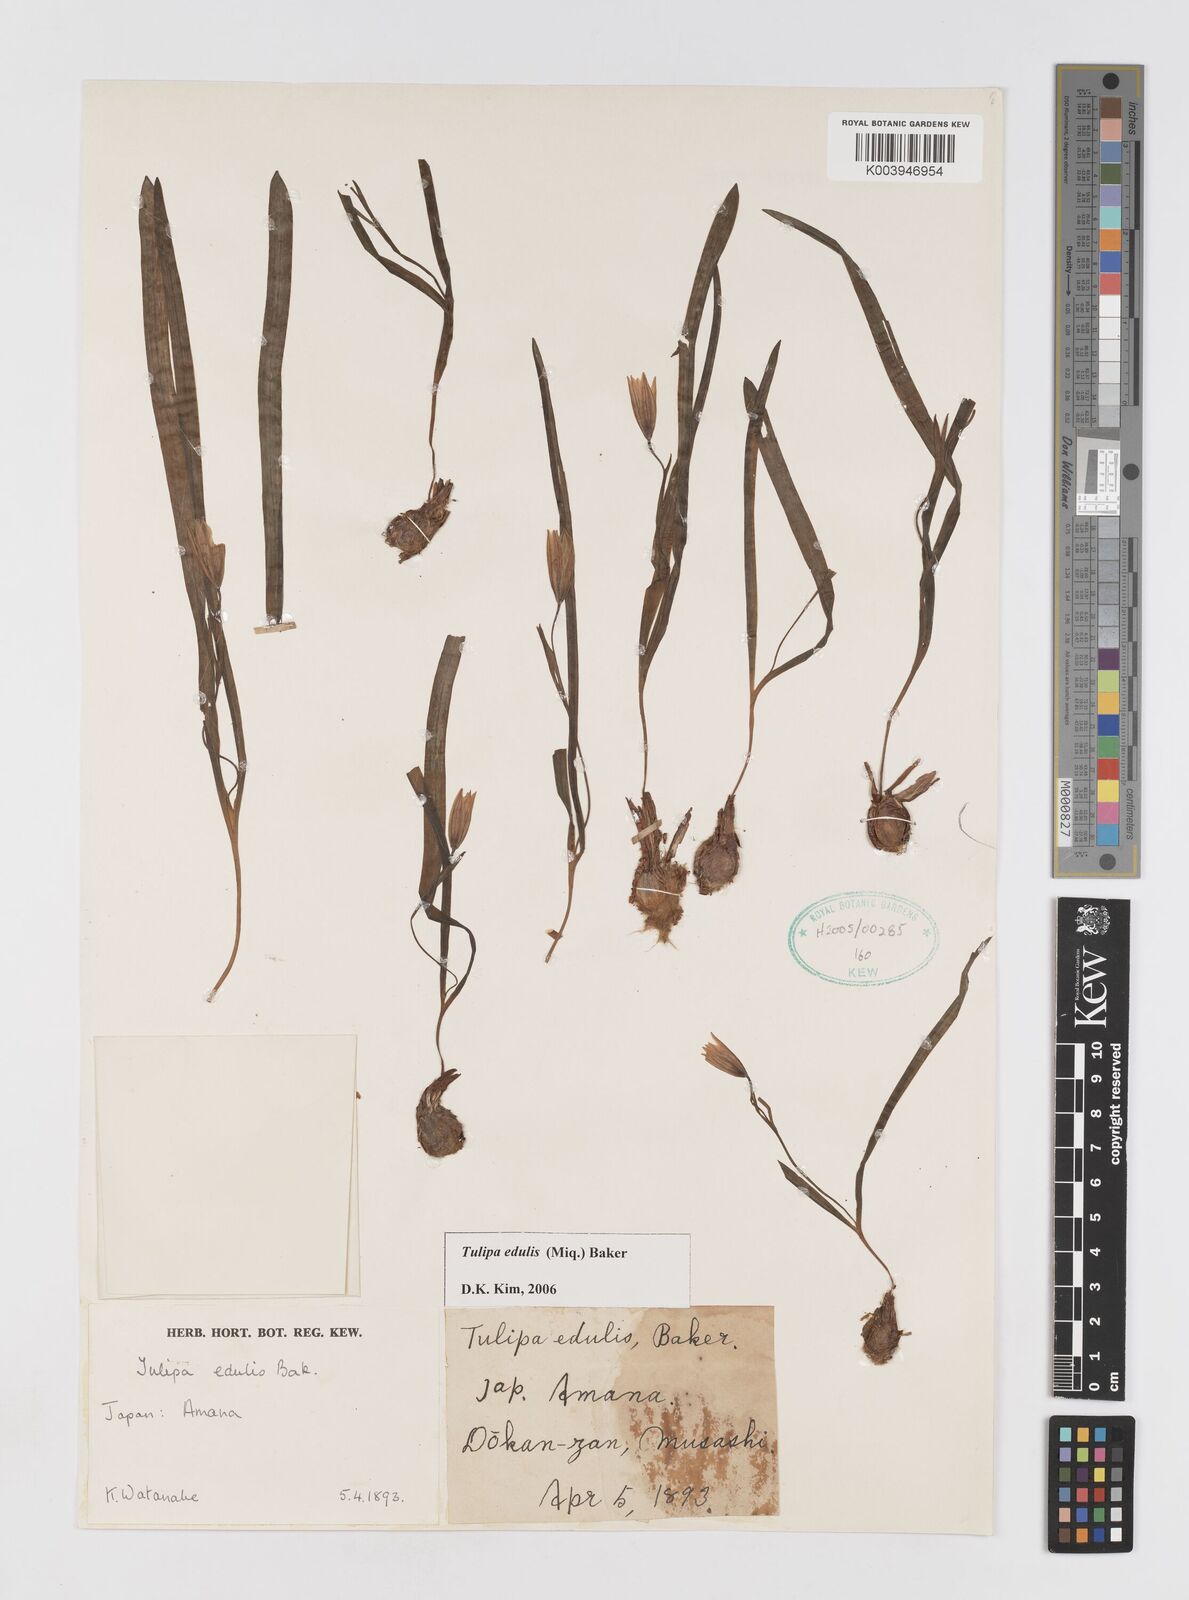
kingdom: Plantae
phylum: Tracheophyta
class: Liliopsida
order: Liliales
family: Liliaceae
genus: Amana
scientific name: Amana edulis
